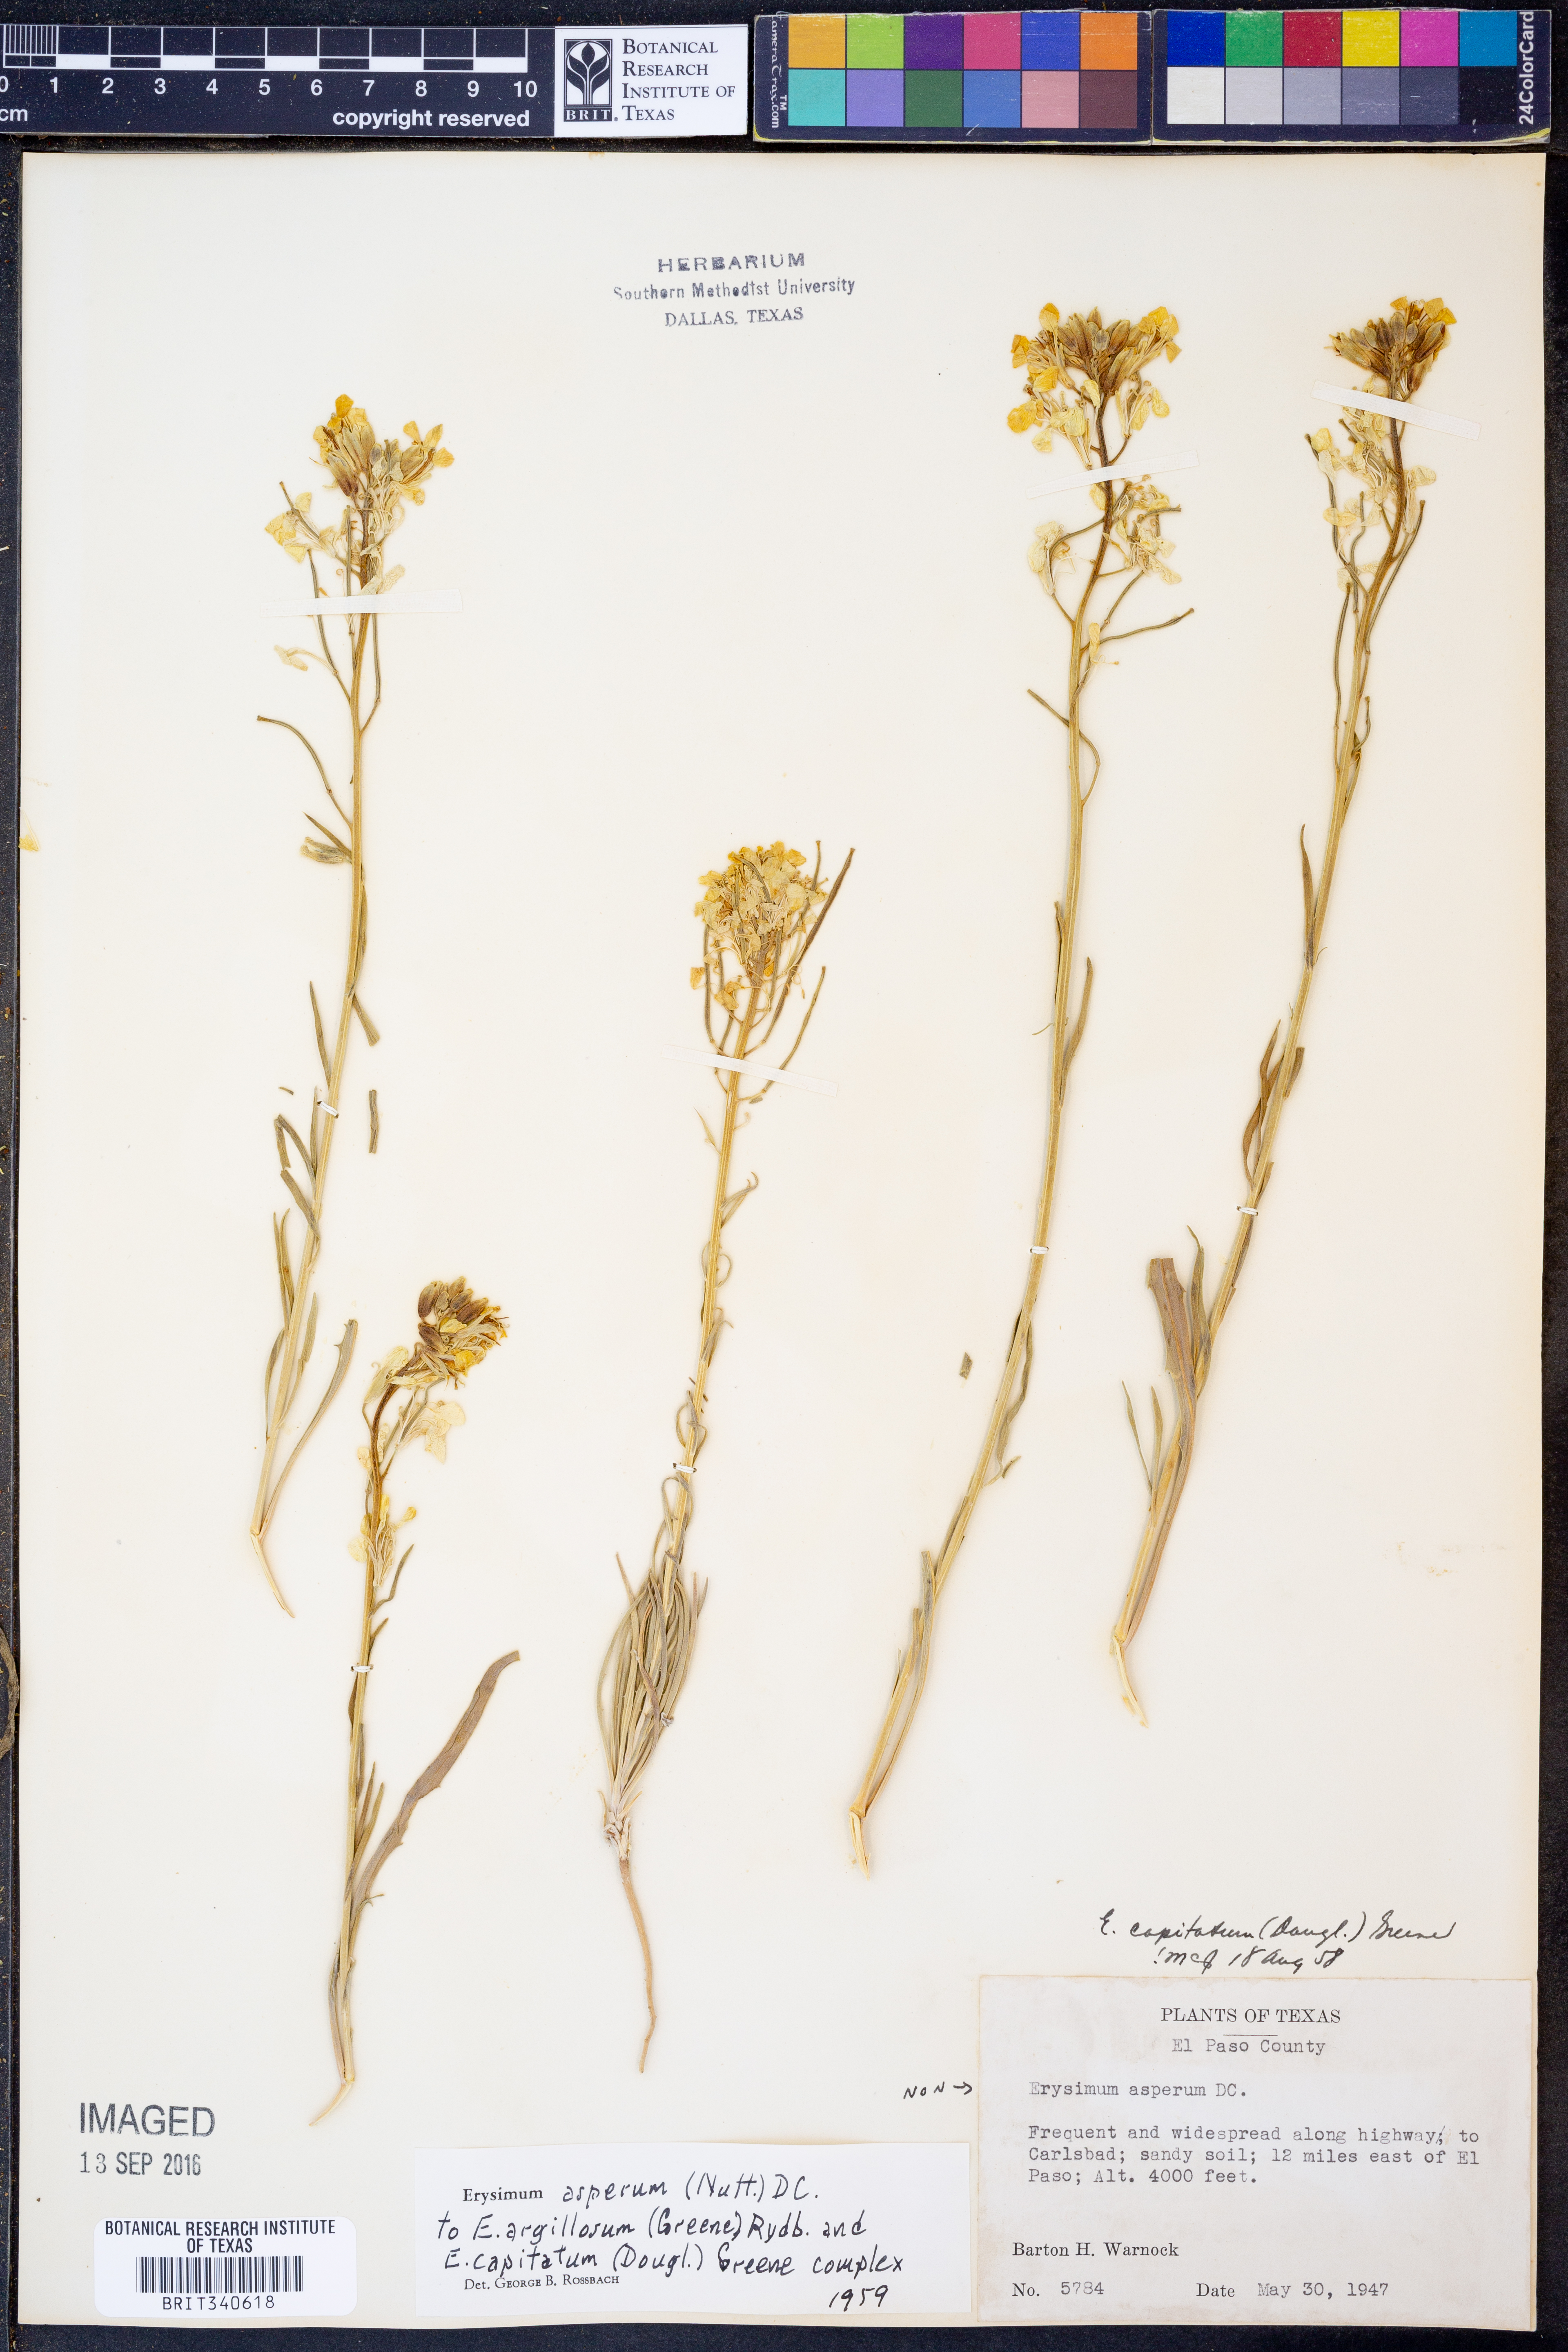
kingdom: Plantae
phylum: Tracheophyta
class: Magnoliopsida
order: Brassicales
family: Brassicaceae
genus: Erysimum
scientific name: Erysimum asperum
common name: Western wallflower
